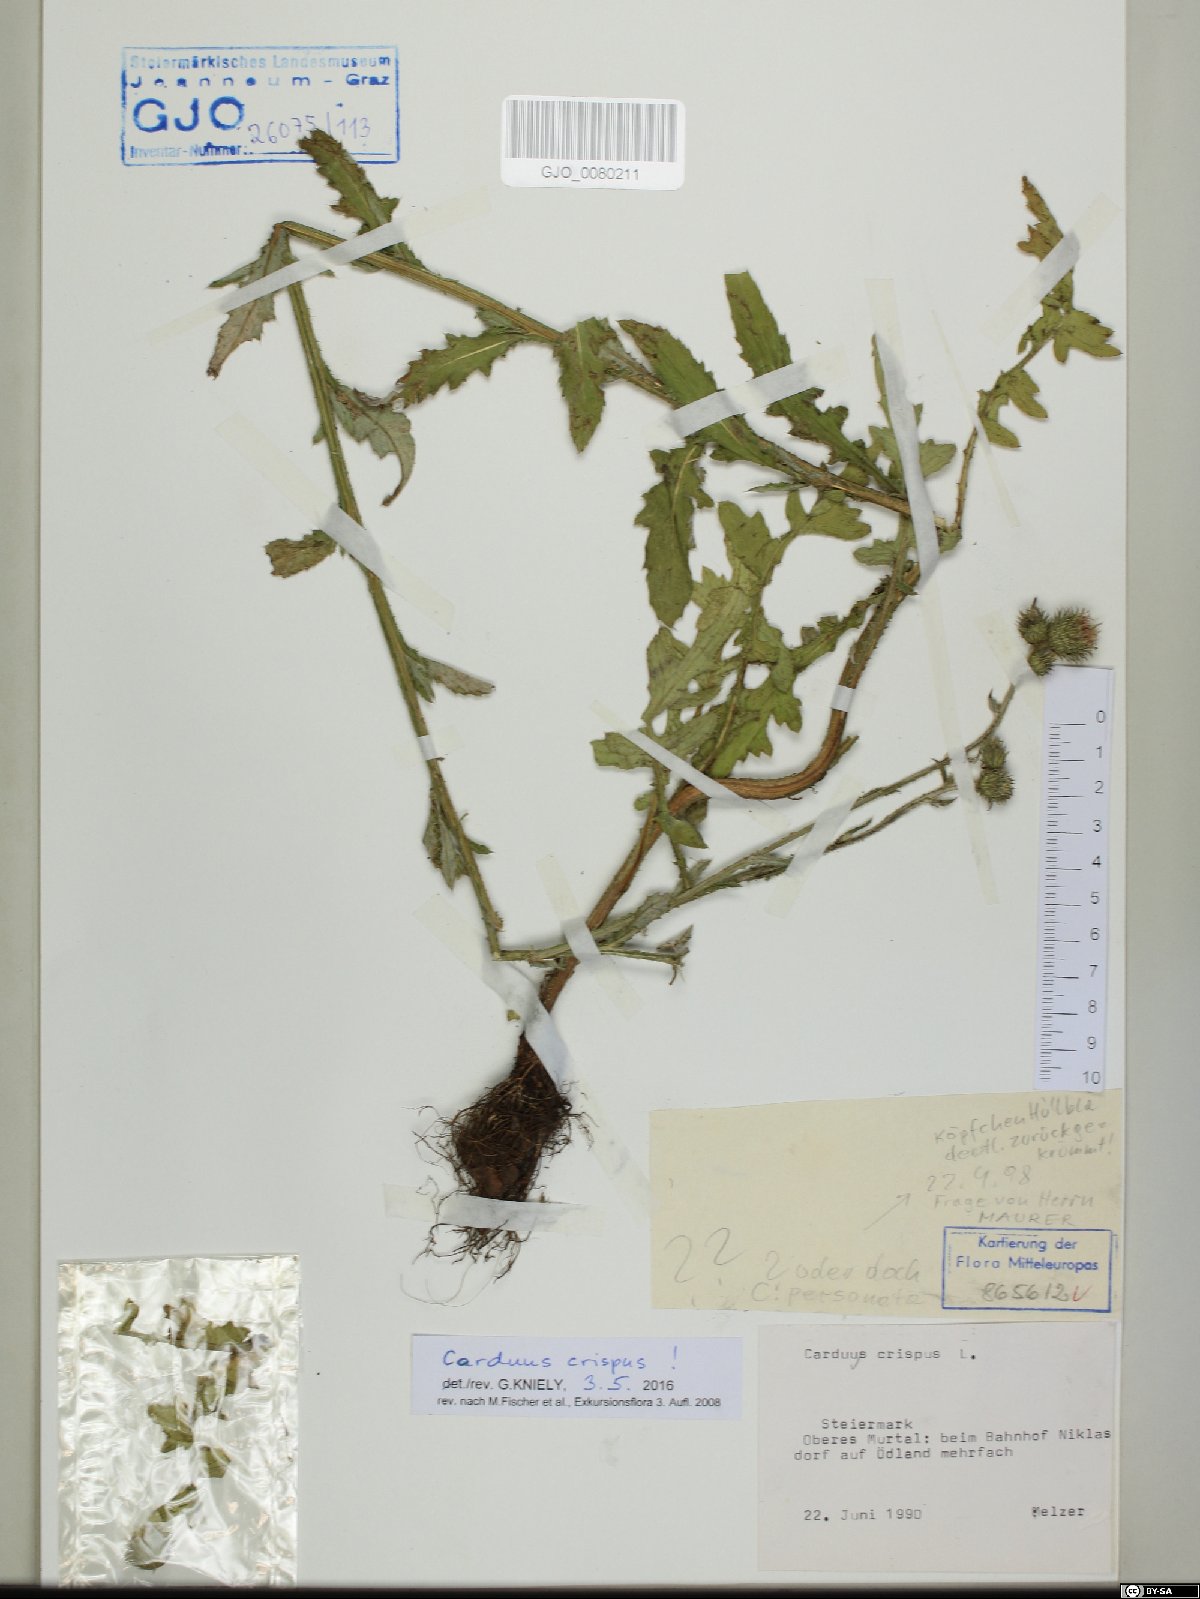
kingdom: Plantae
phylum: Tracheophyta
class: Magnoliopsida
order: Asterales
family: Asteraceae
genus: Carduus
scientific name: Carduus crispus
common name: Welted thistle
